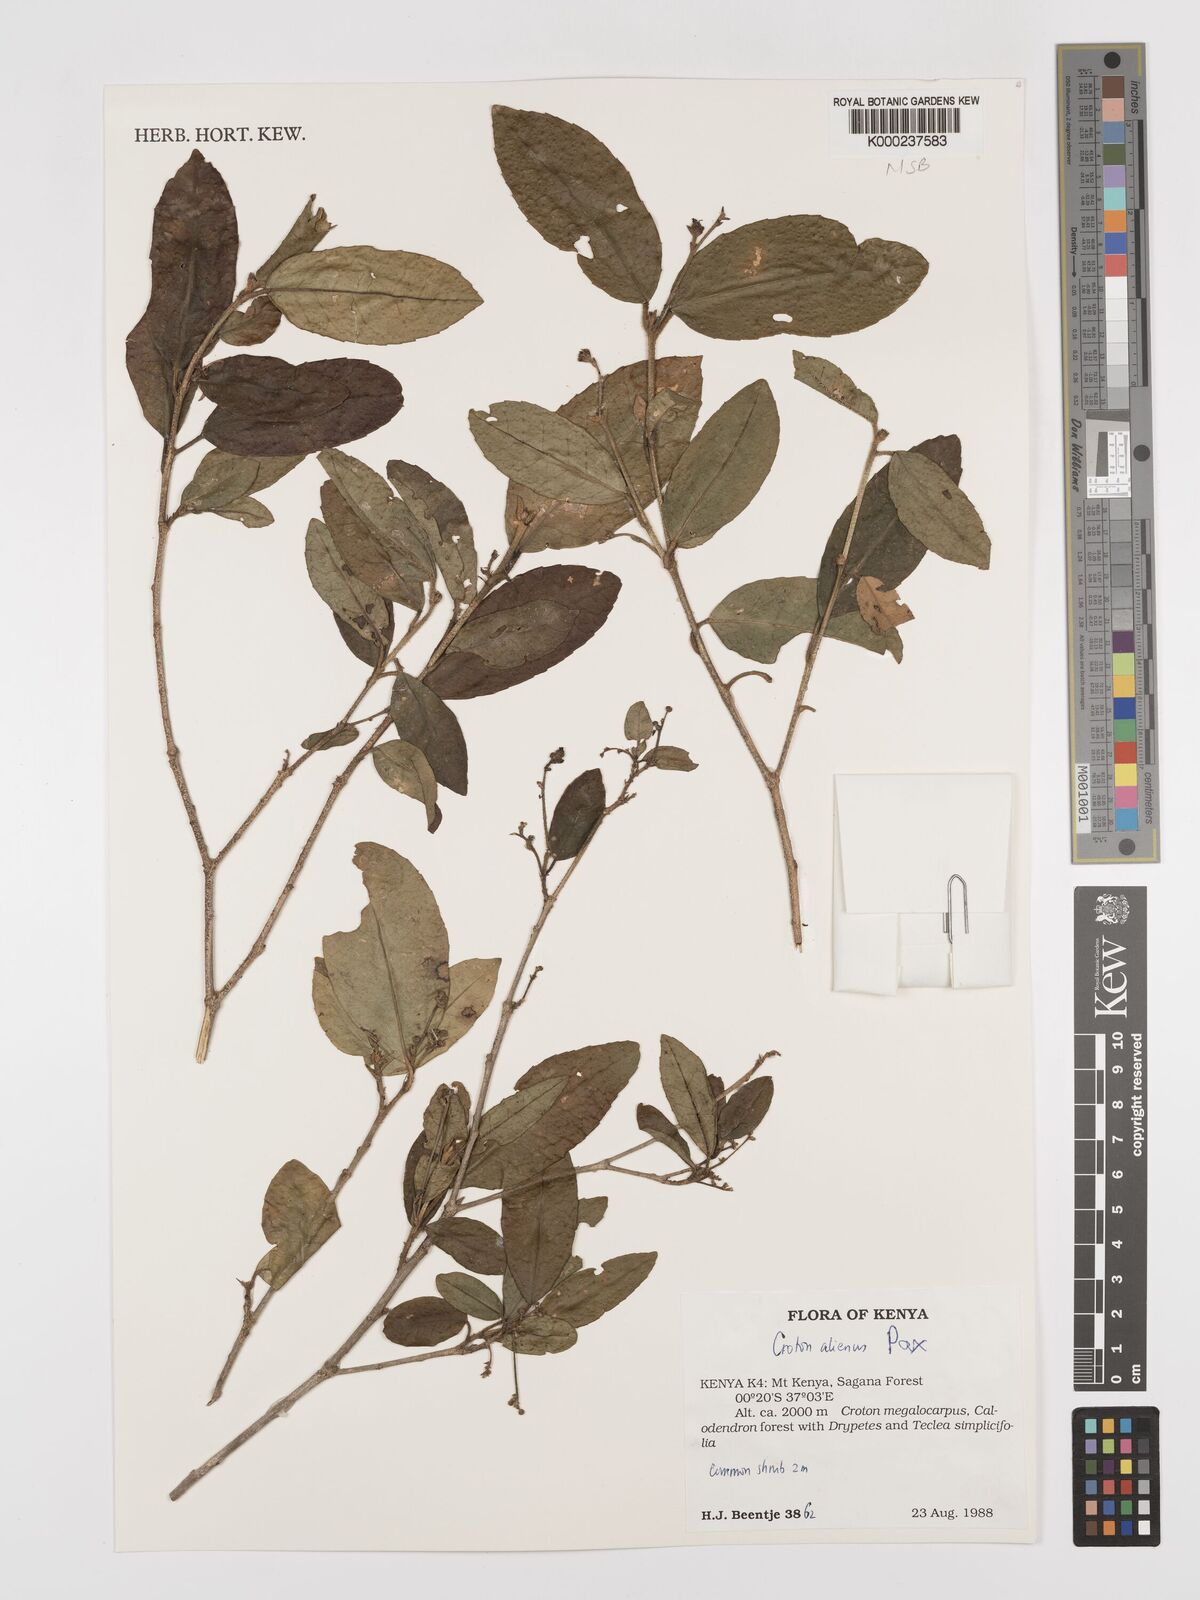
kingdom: Plantae
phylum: Tracheophyta
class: Magnoliopsida
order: Malpighiales
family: Euphorbiaceae
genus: Croton
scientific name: Croton alienus
